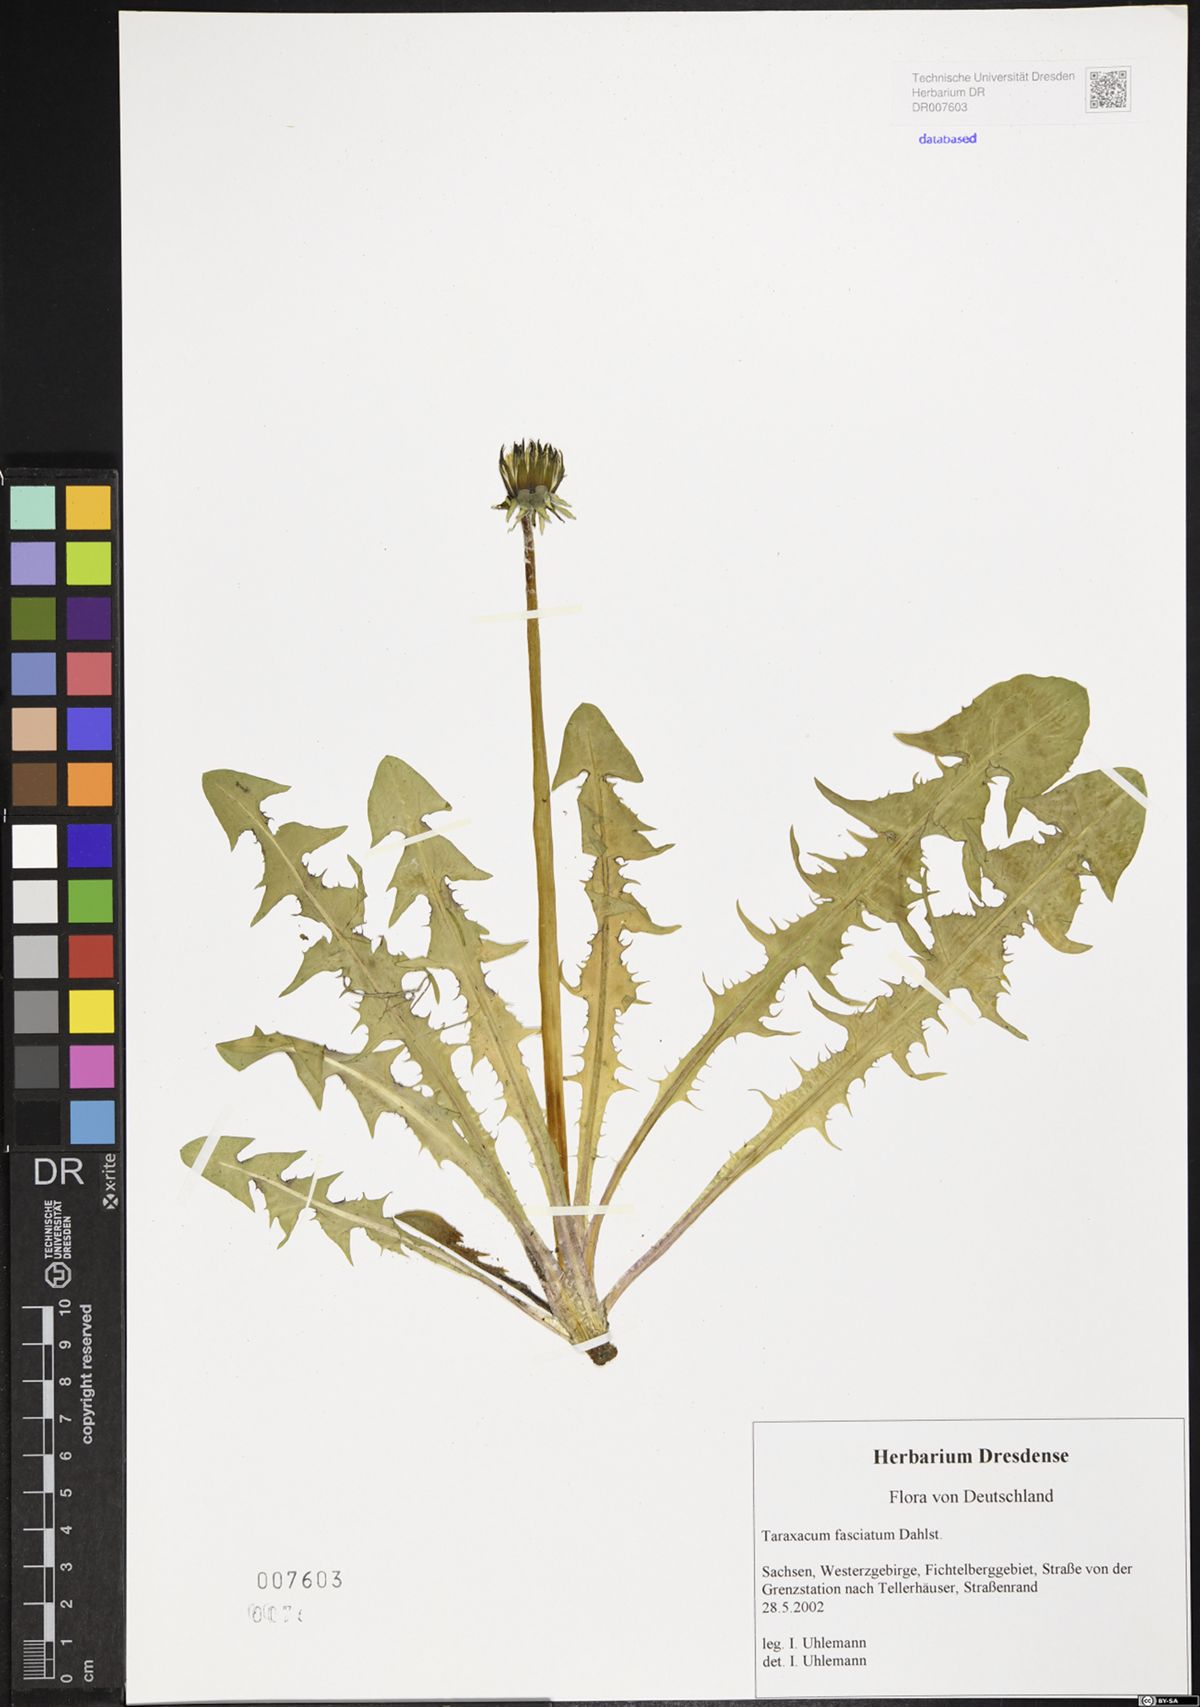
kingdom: Plantae
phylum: Tracheophyta
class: Magnoliopsida
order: Asterales
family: Asteraceae
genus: Taraxacum
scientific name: Taraxacum fasciatum
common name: Dense-bracted dandelion
